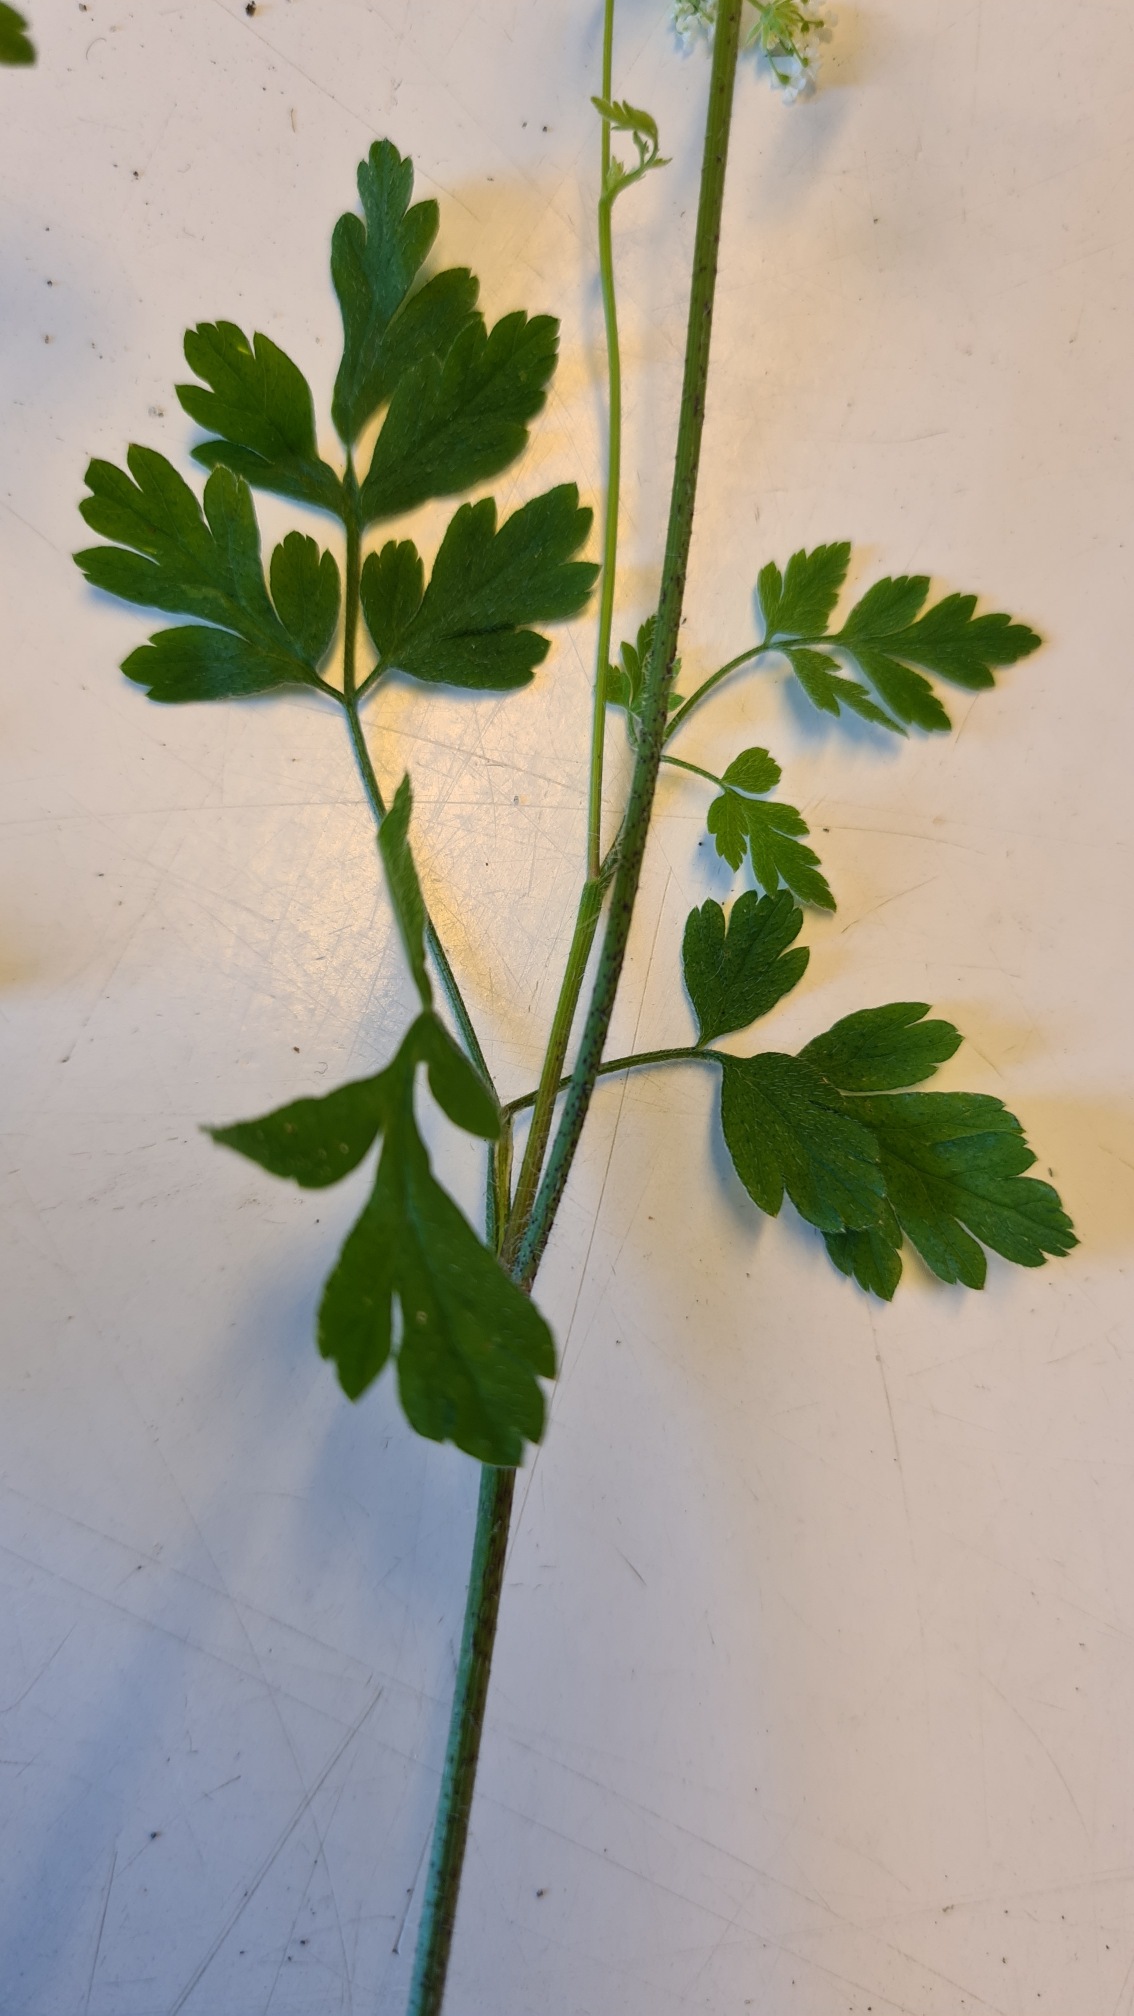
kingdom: Plantae
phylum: Tracheophyta
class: Magnoliopsida
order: Apiales
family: Apiaceae
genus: Chaerophyllum
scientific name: Chaerophyllum temulum
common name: Almindelig hulsvøb
